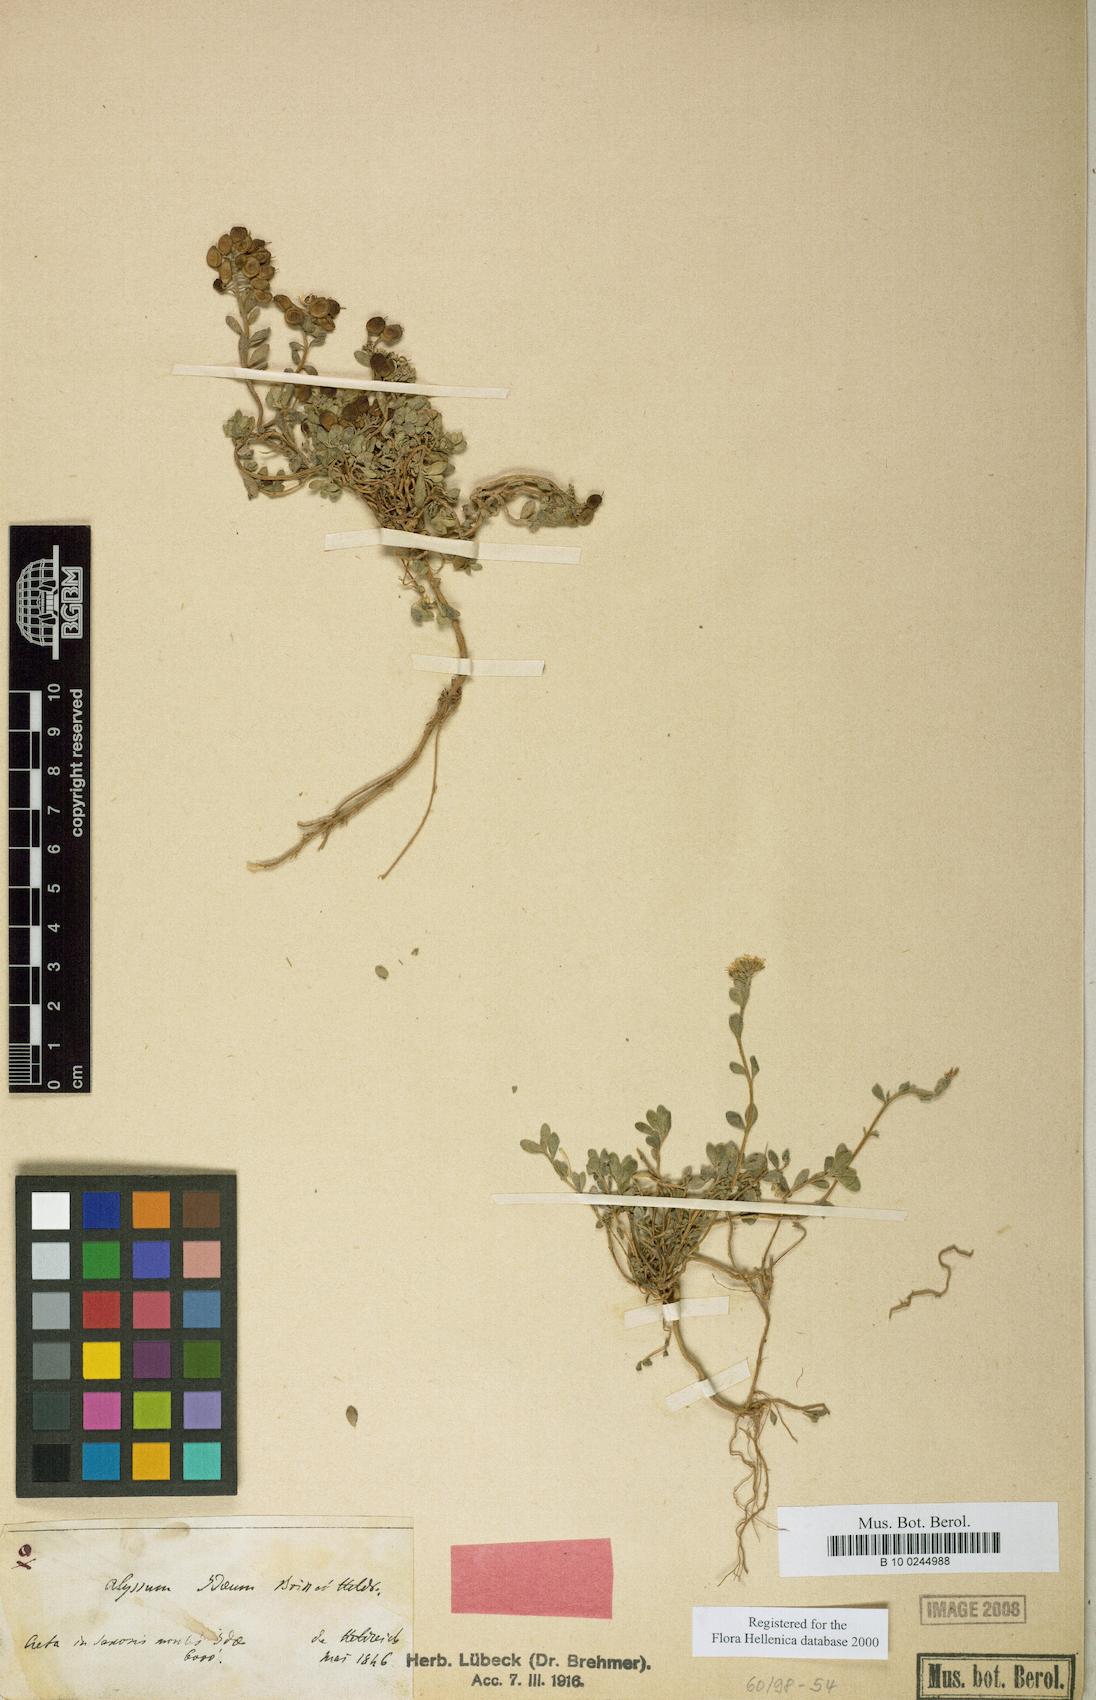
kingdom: Plantae
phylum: Tracheophyta
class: Magnoliopsida
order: Brassicales
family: Brassicaceae
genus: Alyssum
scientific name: Alyssum idaeum
